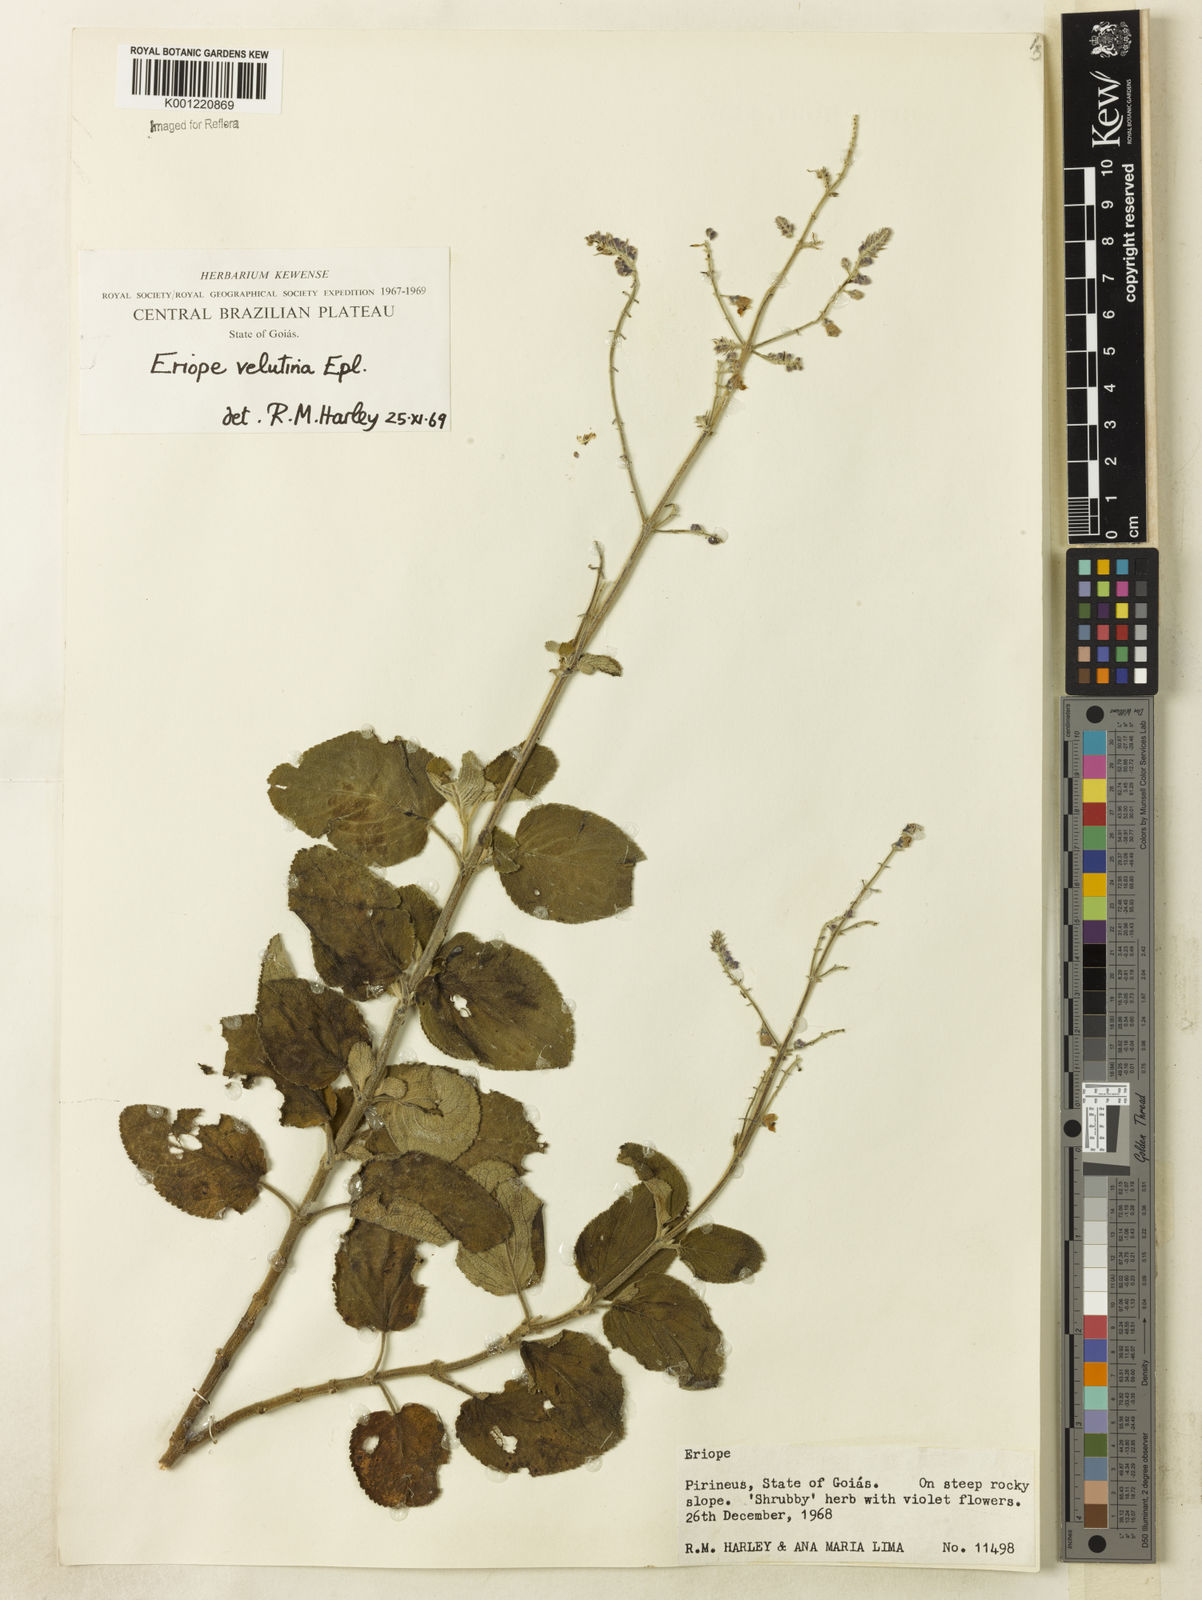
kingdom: Plantae
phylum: Tracheophyta
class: Magnoliopsida
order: Lamiales
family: Lamiaceae
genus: Eriope
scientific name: Eriope velutina
